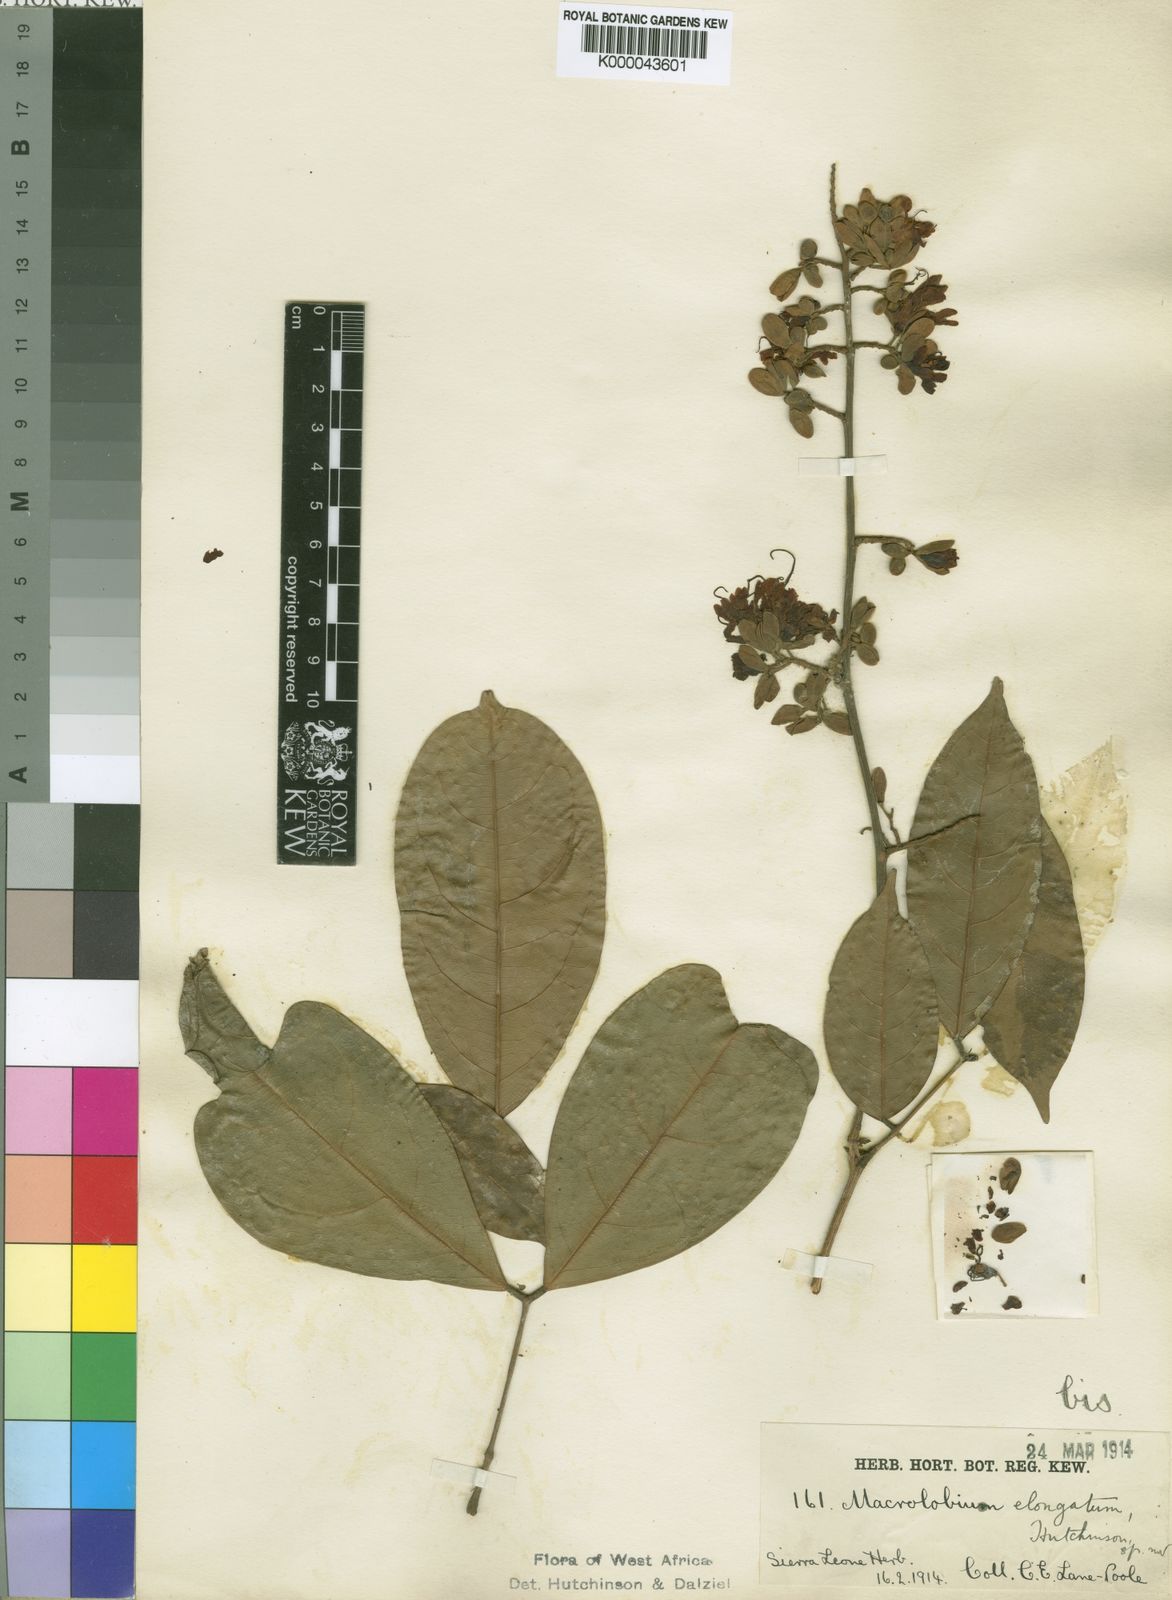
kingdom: Plantae
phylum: Tracheophyta
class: Magnoliopsida
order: Fabales
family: Fabaceae
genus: Englerodendron
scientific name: Englerodendron obanense
